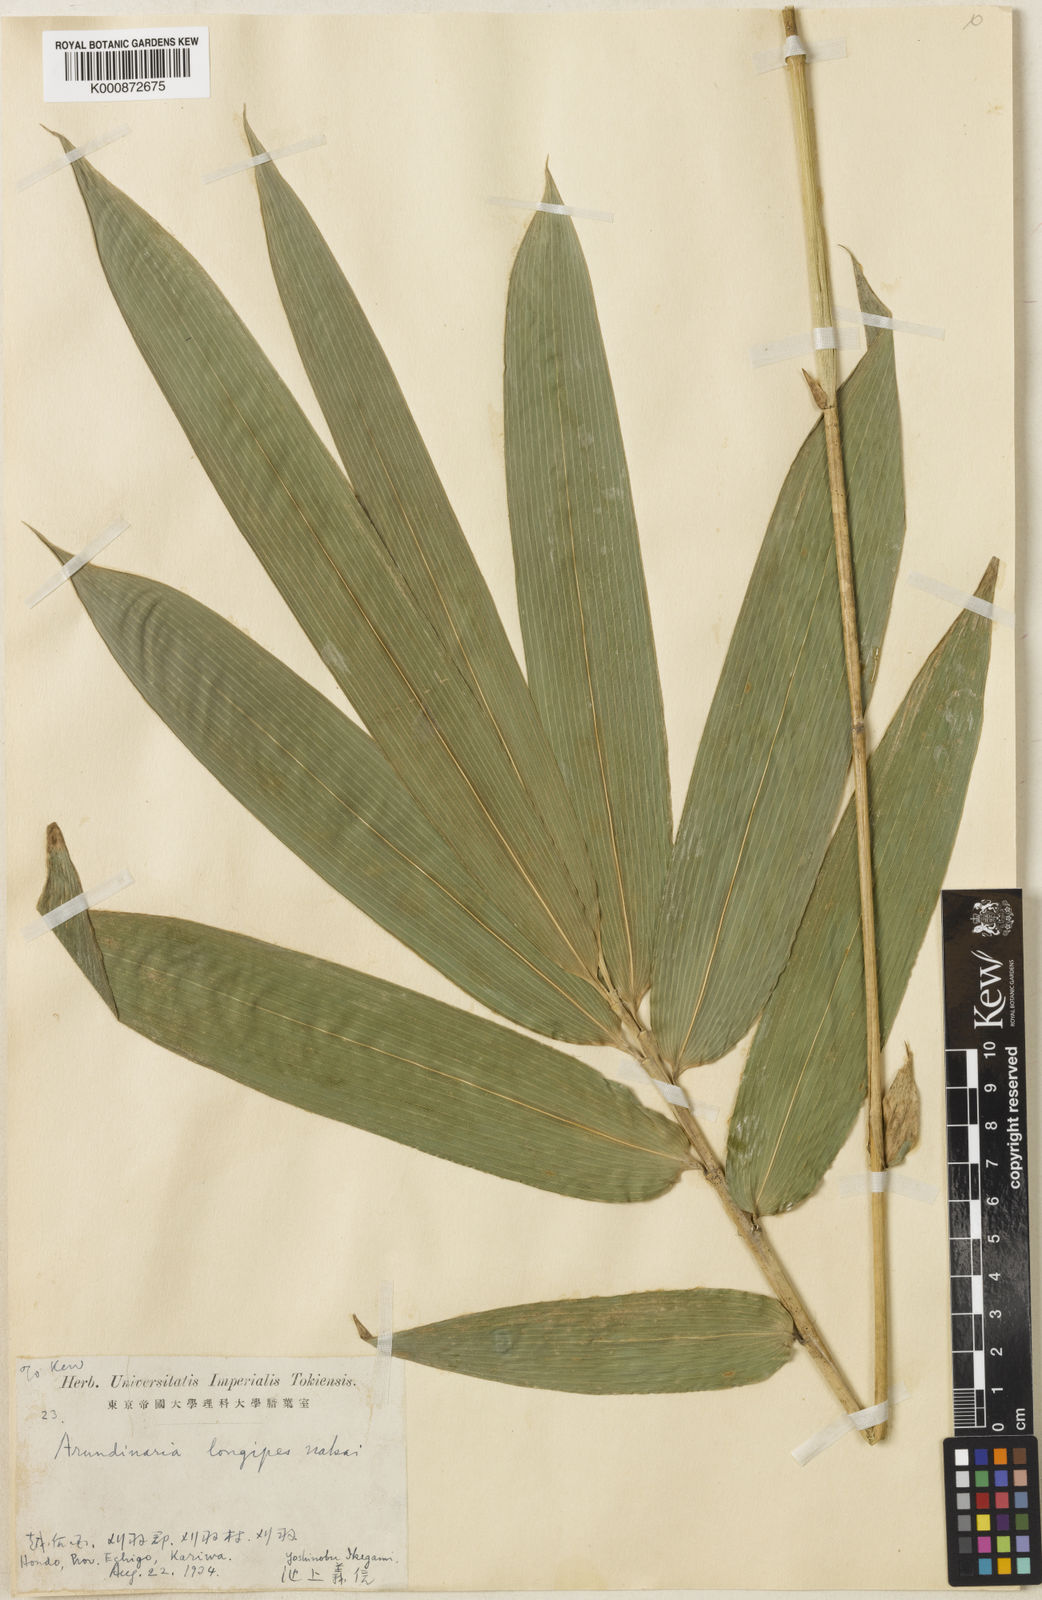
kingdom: Plantae
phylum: Tracheophyta
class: Liliopsida
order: Poales
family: Poaceae
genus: Sasaella
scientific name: Sasaella hidaensis
